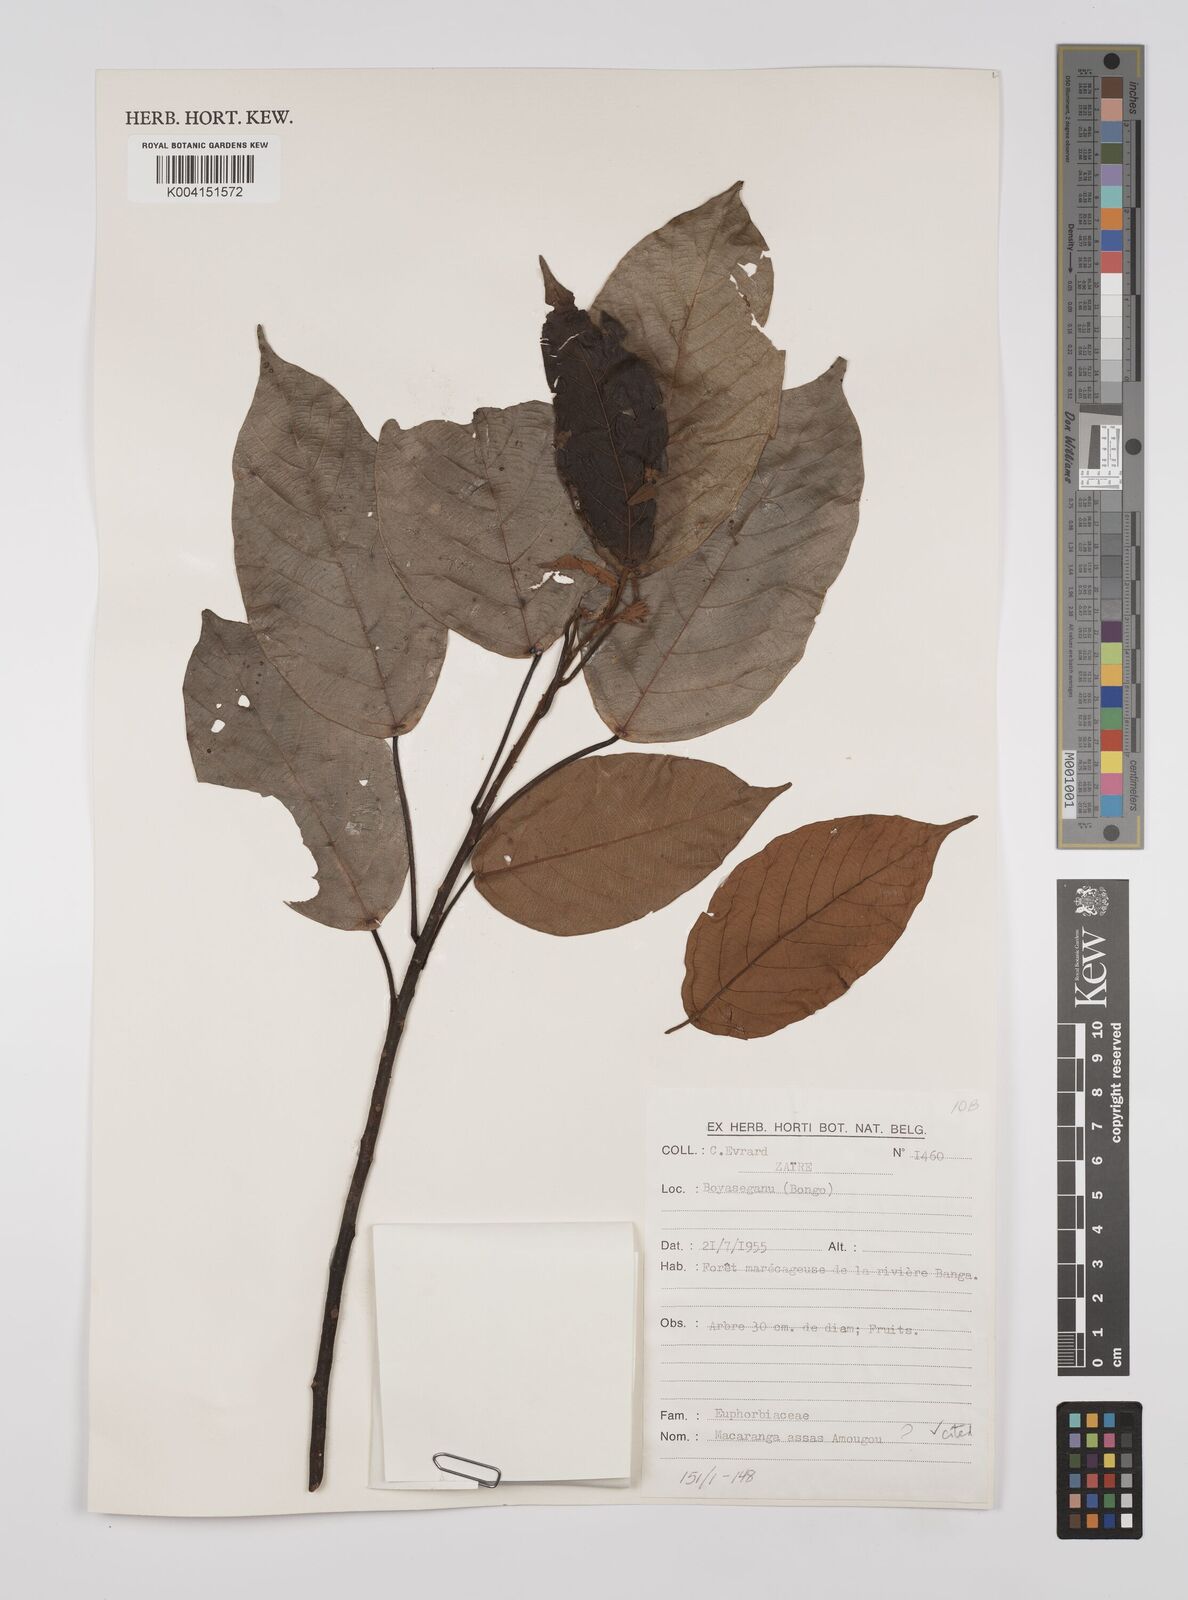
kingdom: Plantae
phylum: Tracheophyta
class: Magnoliopsida
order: Malpighiales
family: Euphorbiaceae
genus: Macaranga
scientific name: Macaranga assas
